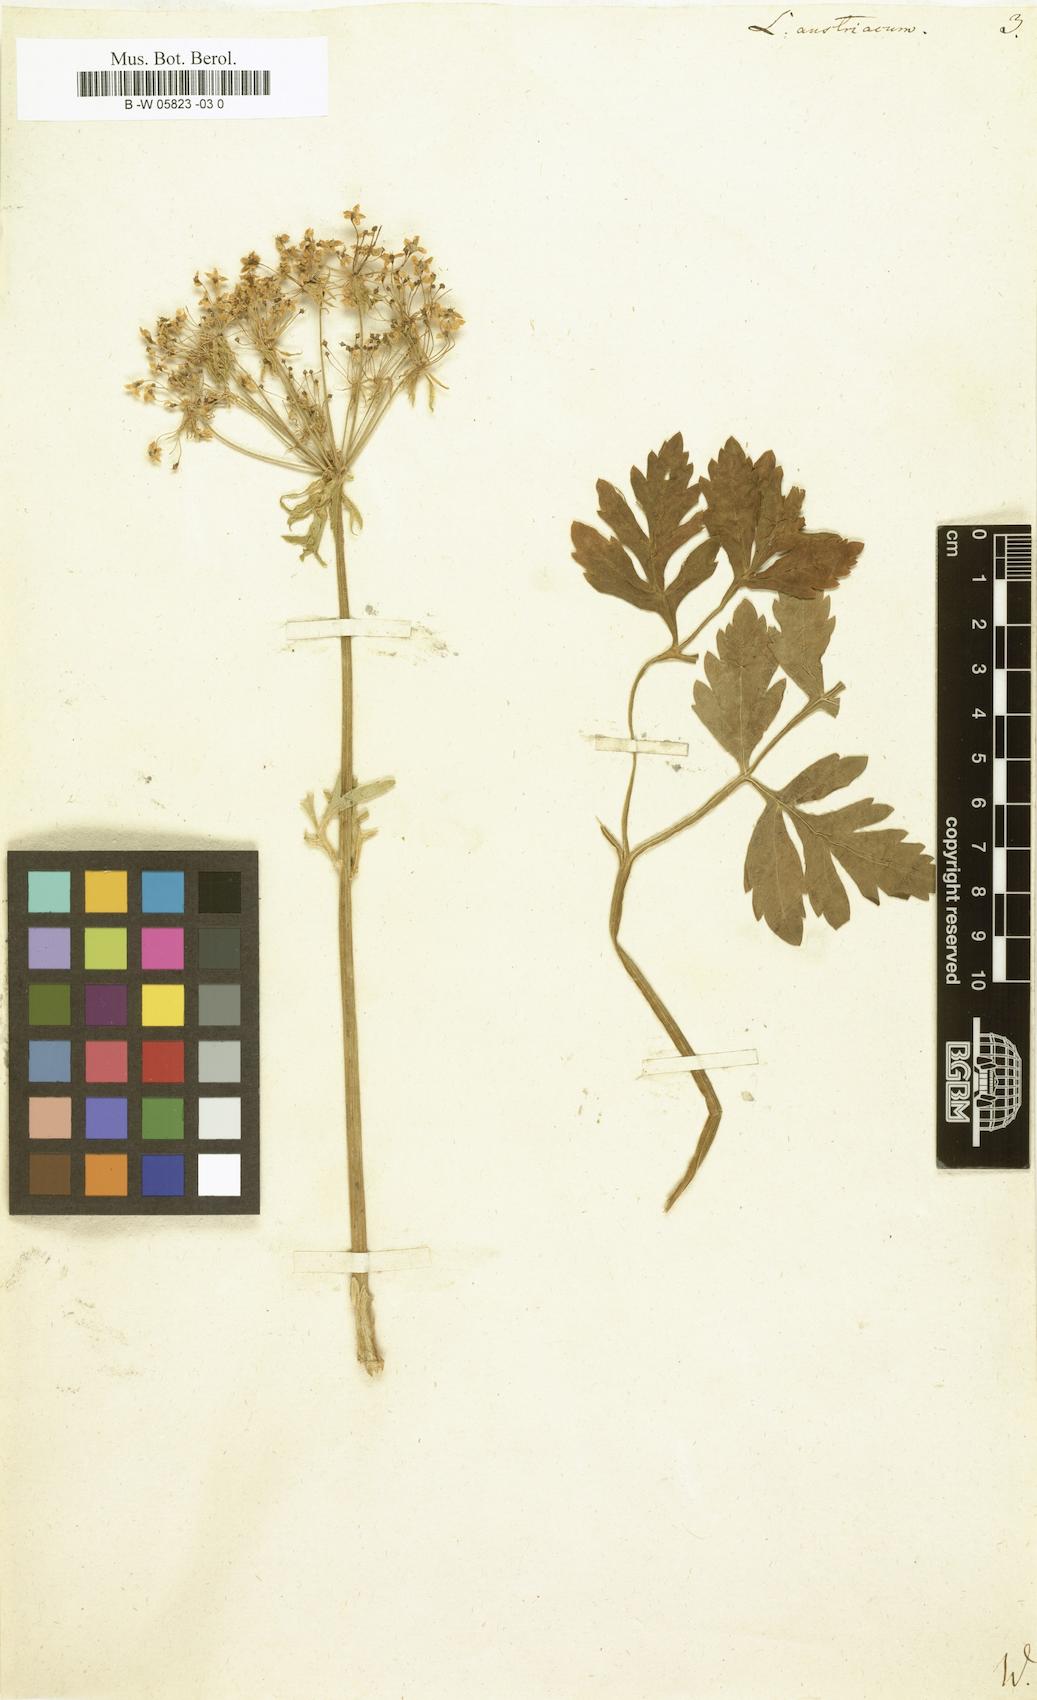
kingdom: Plantae
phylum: Tracheophyta
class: Magnoliopsida
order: Apiales
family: Apiaceae
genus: Pleurospermum
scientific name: Pleurospermum austriacum
